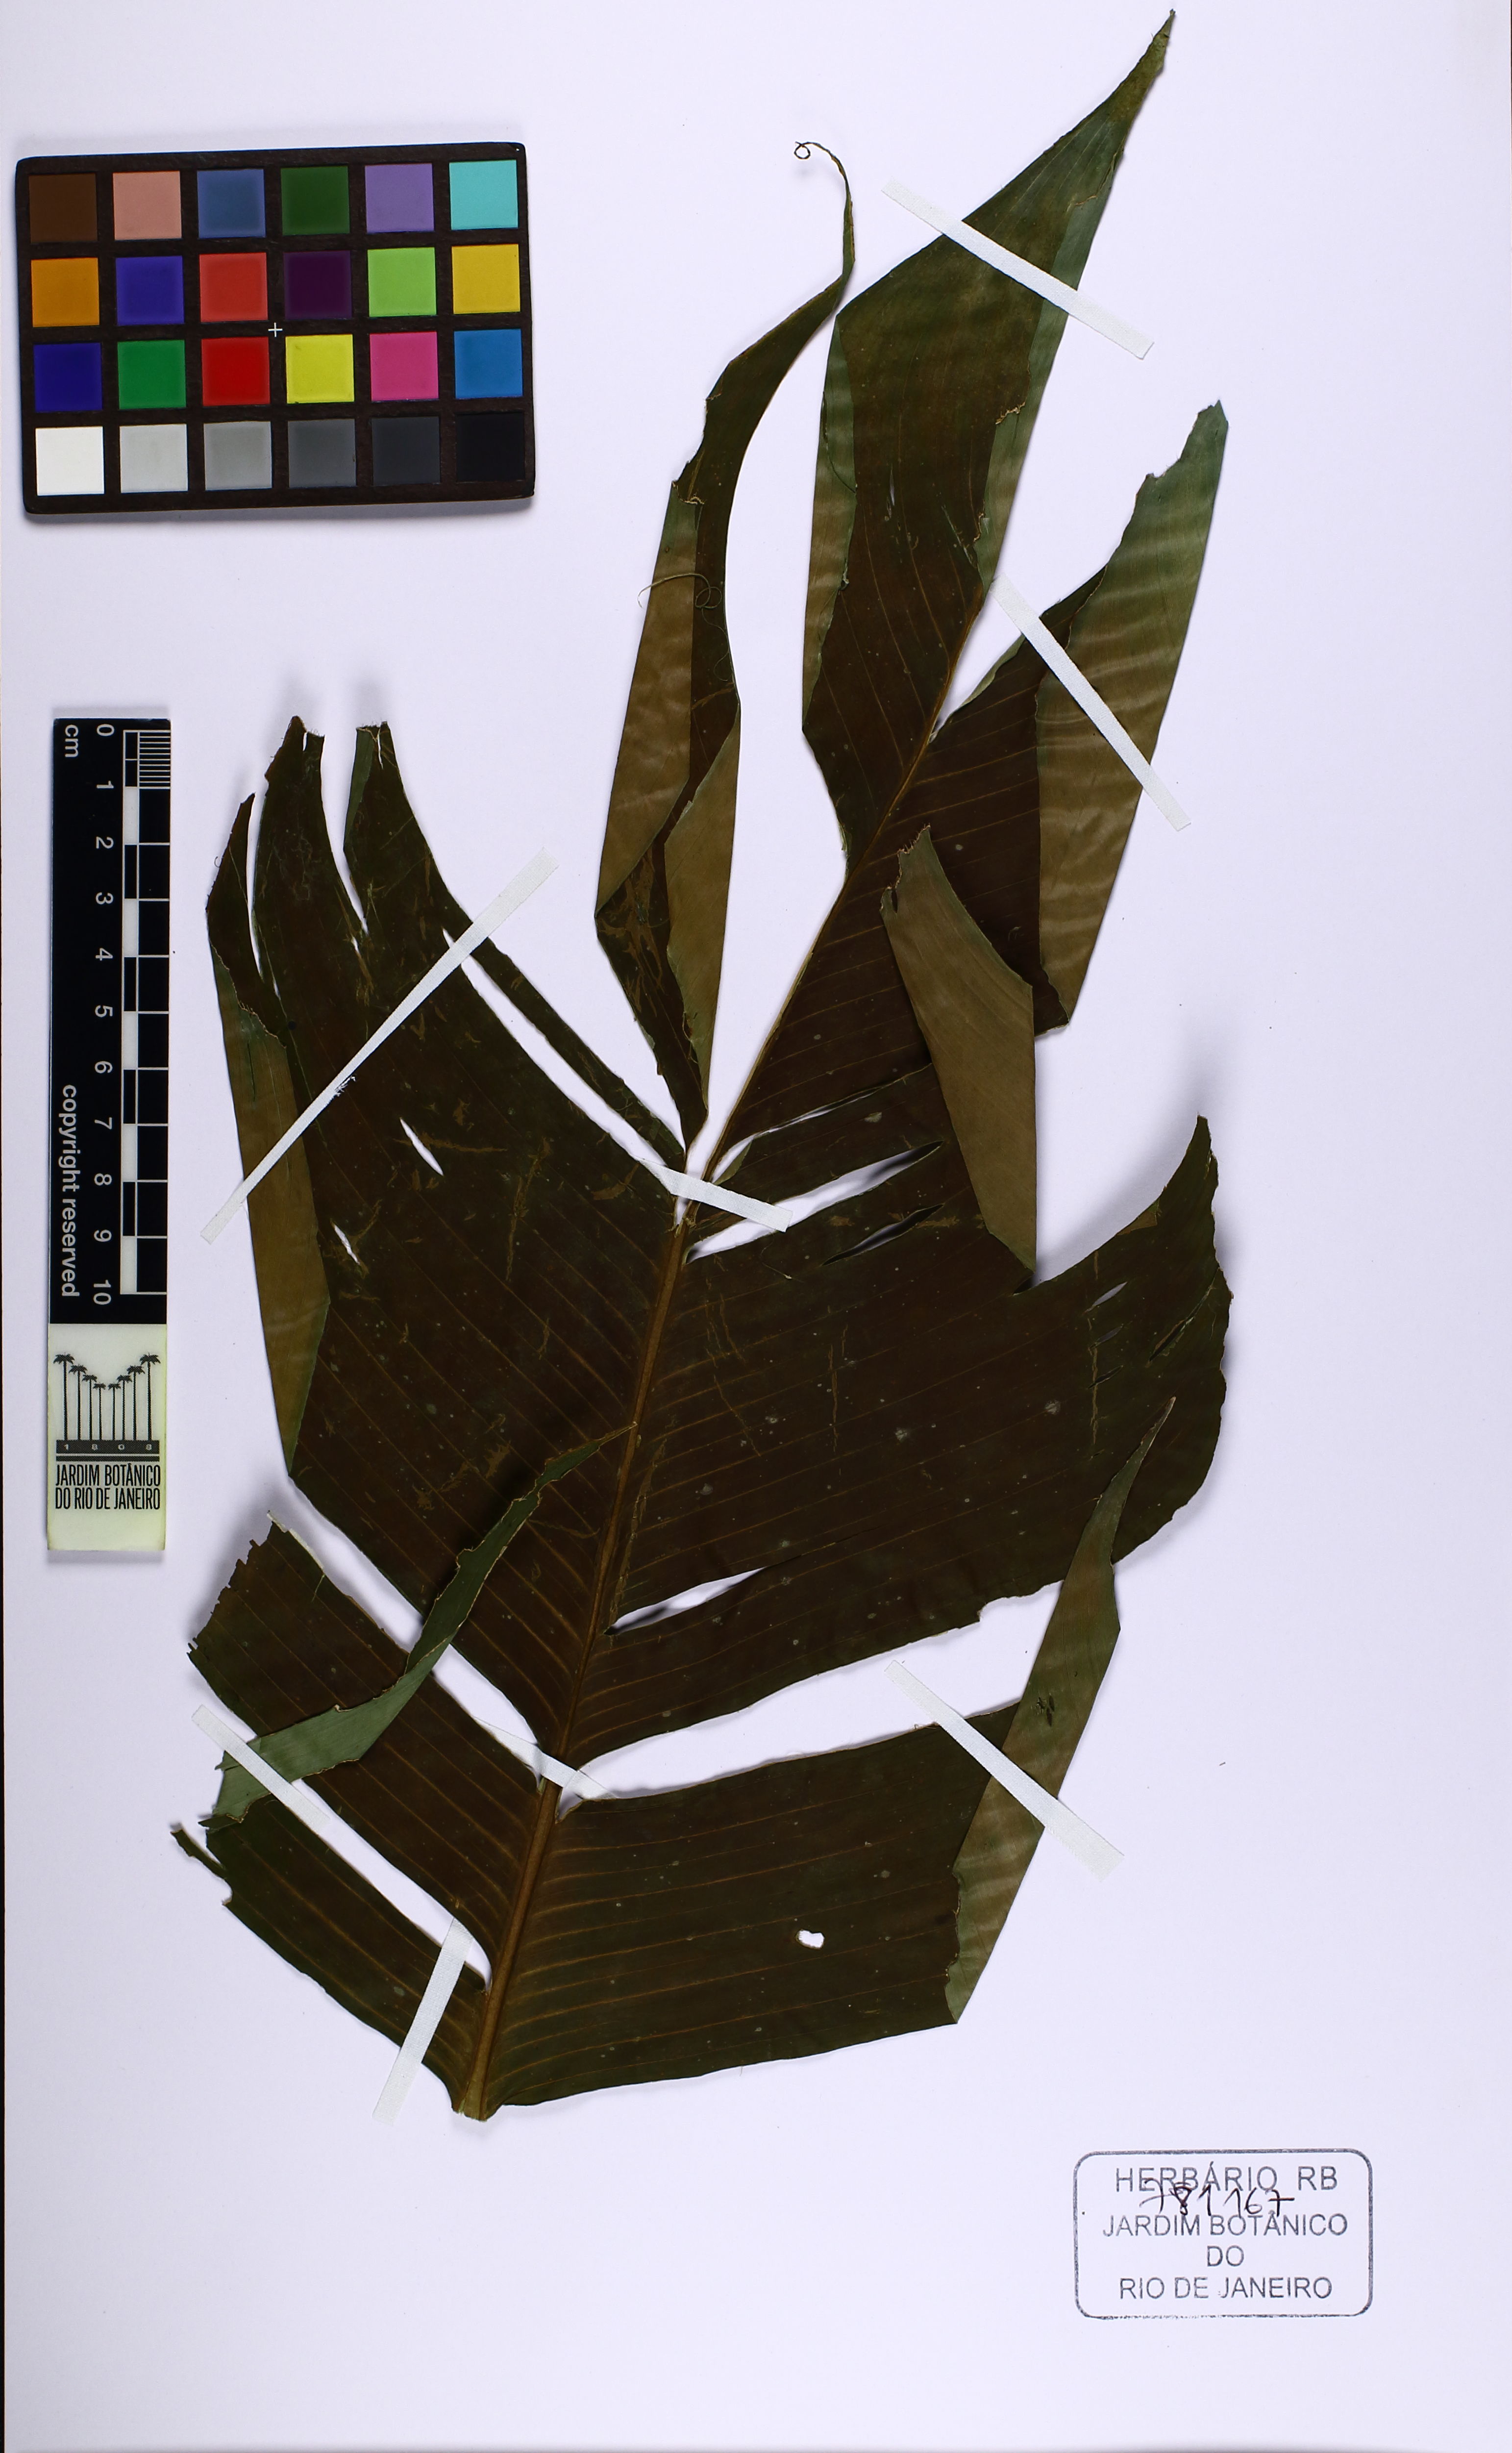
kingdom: Plantae
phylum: Tracheophyta
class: Liliopsida
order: Zingiberales
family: Heliconiaceae
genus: Heliconia
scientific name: Heliconia spathocircinata
